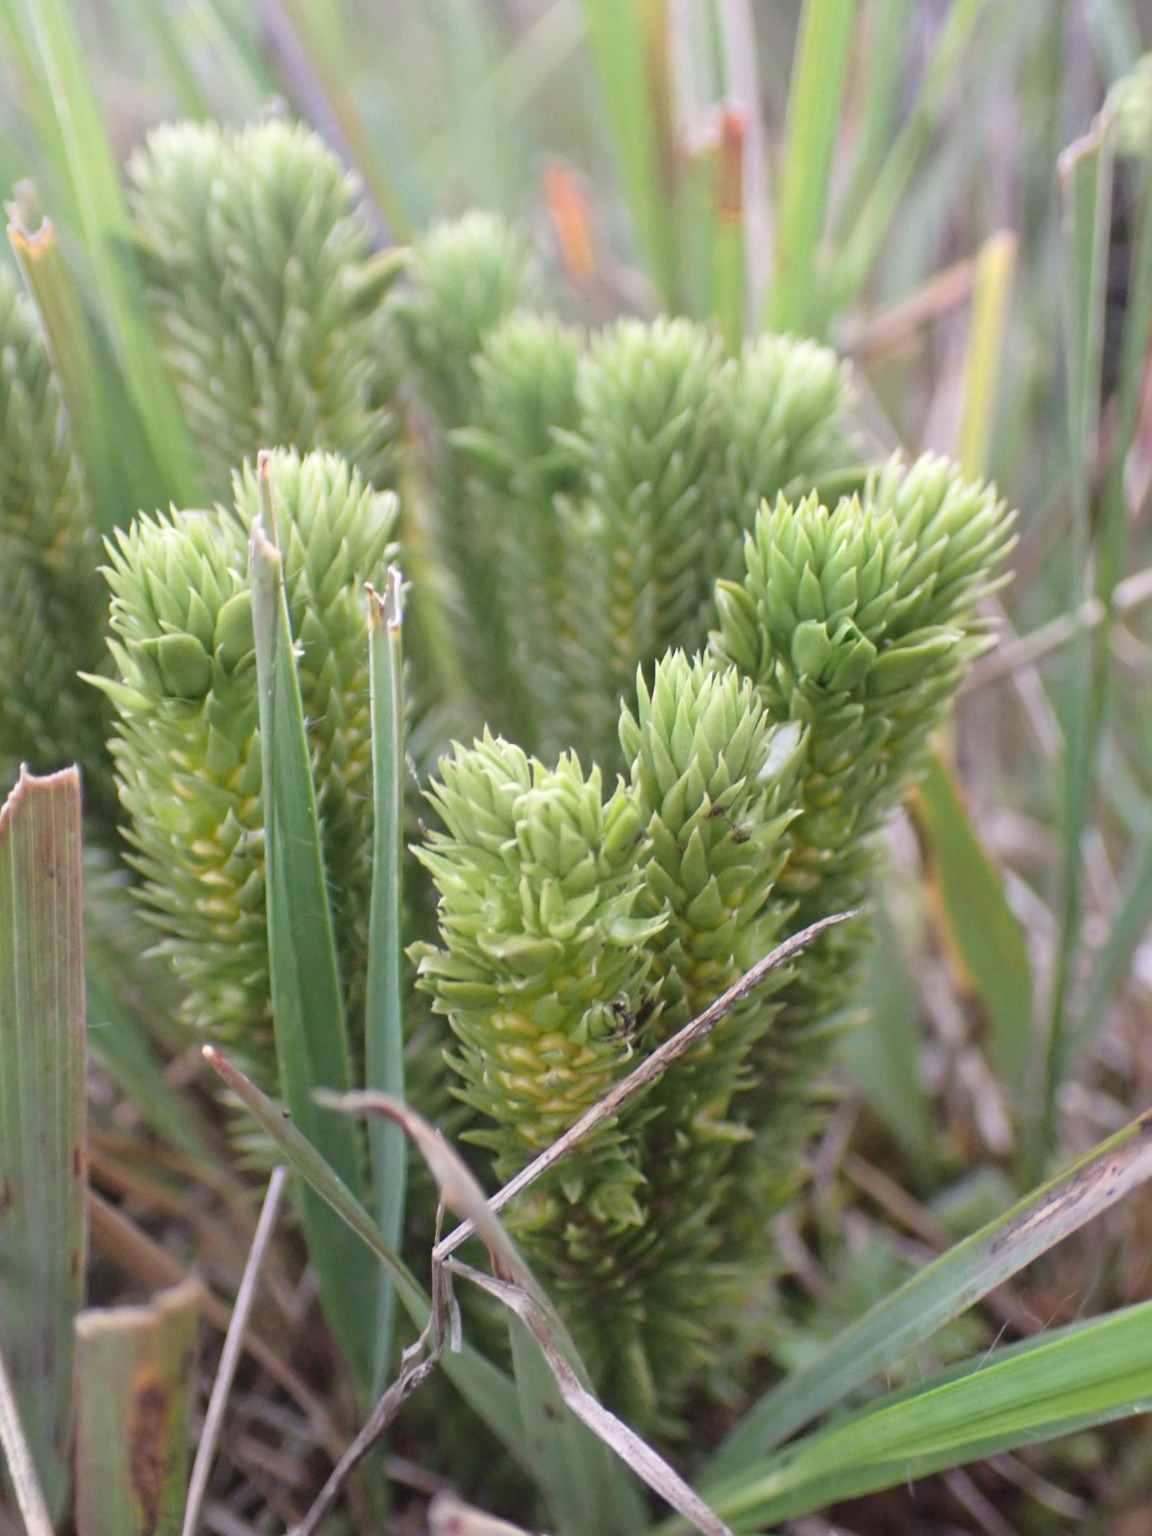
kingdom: Plantae
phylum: Tracheophyta
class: Lycopodiopsida
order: Lycopodiales
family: Lycopodiaceae
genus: Huperzia
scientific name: Huperzia selago
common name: Otteradet ulvefod
